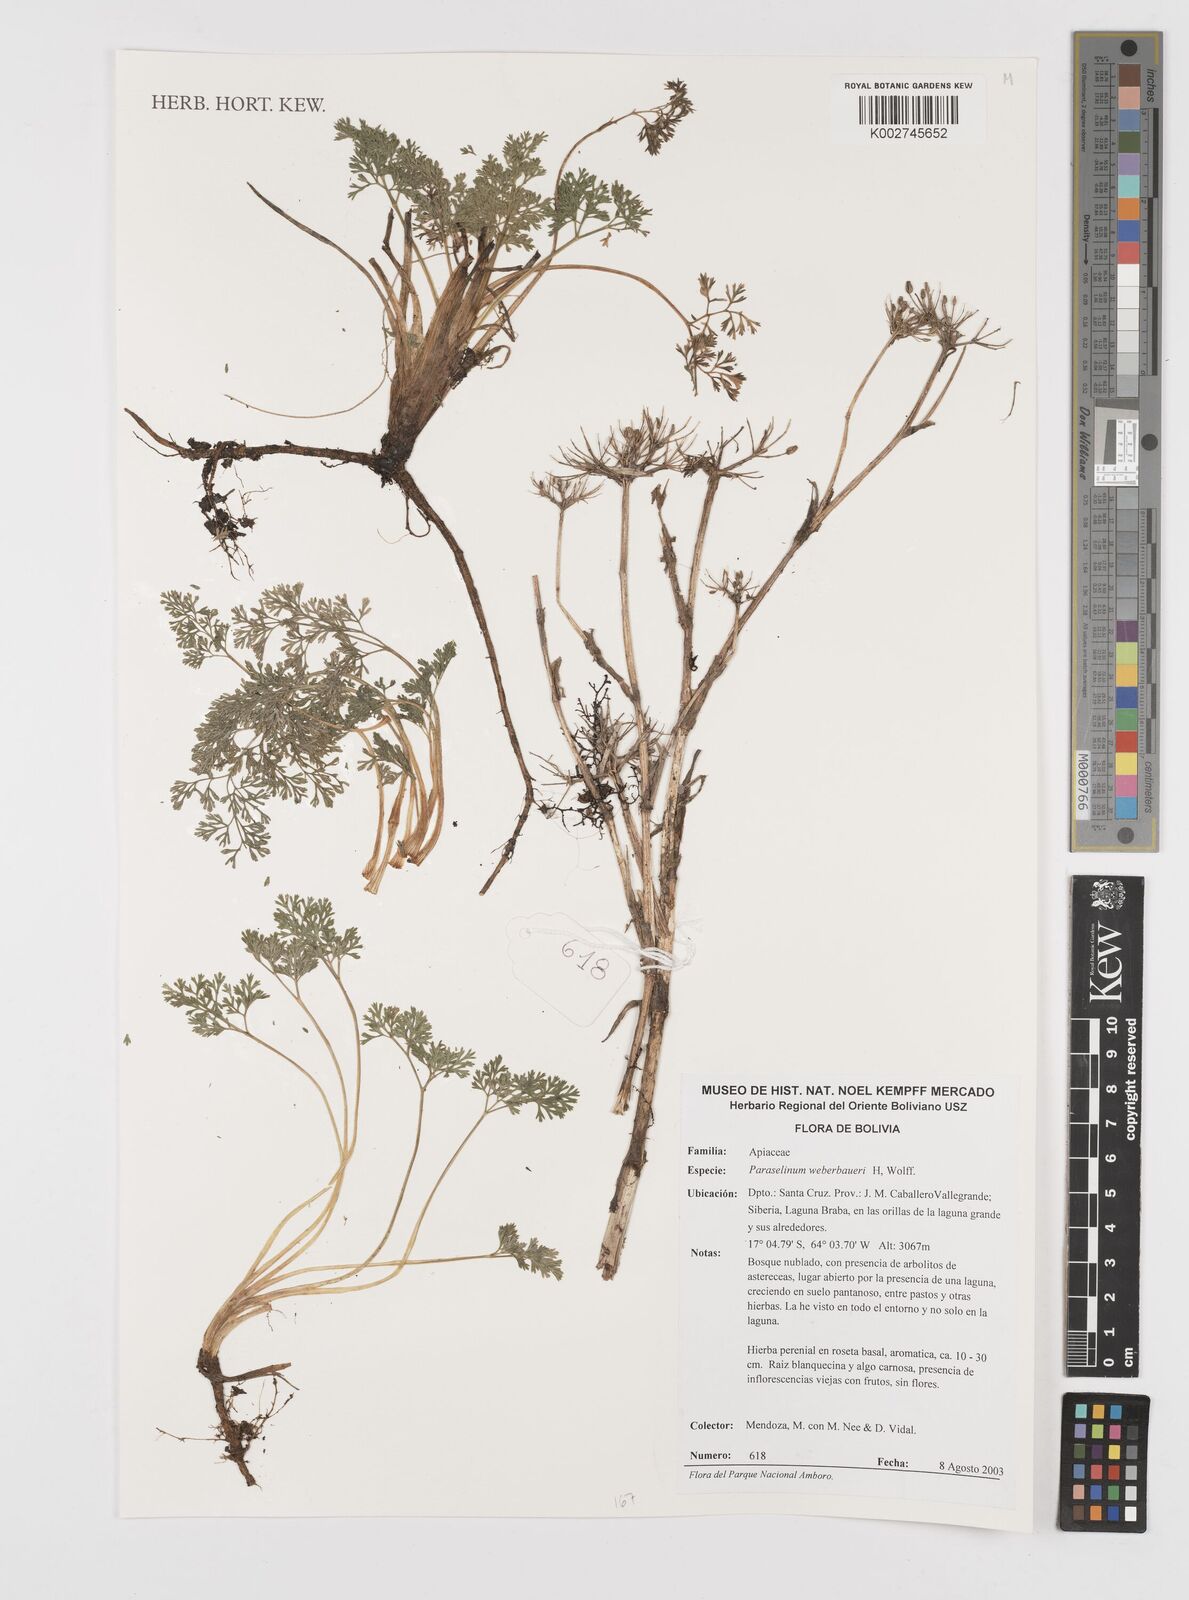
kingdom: Plantae
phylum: Tracheophyta
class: Magnoliopsida
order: Apiales
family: Apiaceae
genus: Paraselinum
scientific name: Paraselinum weberbaueri
